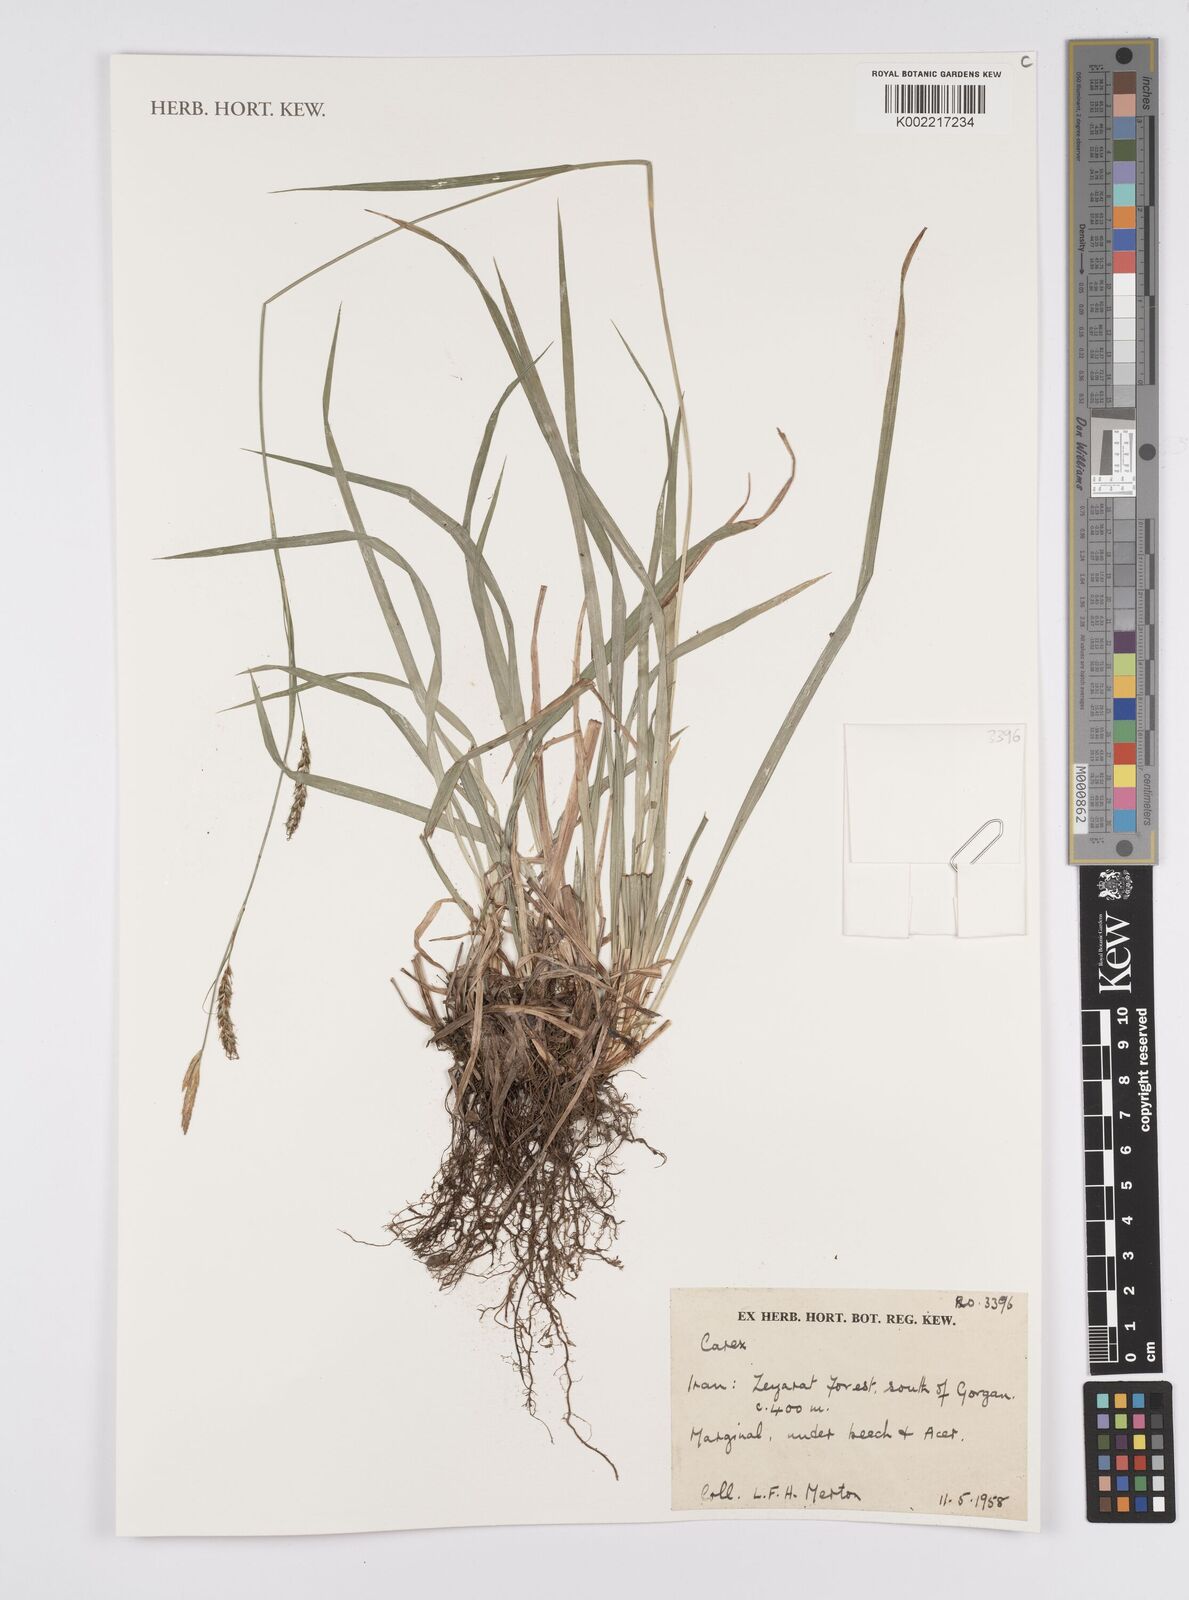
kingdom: Plantae
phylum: Tracheophyta
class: Liliopsida
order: Poales
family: Cyperaceae
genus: Carex
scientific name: Carex
